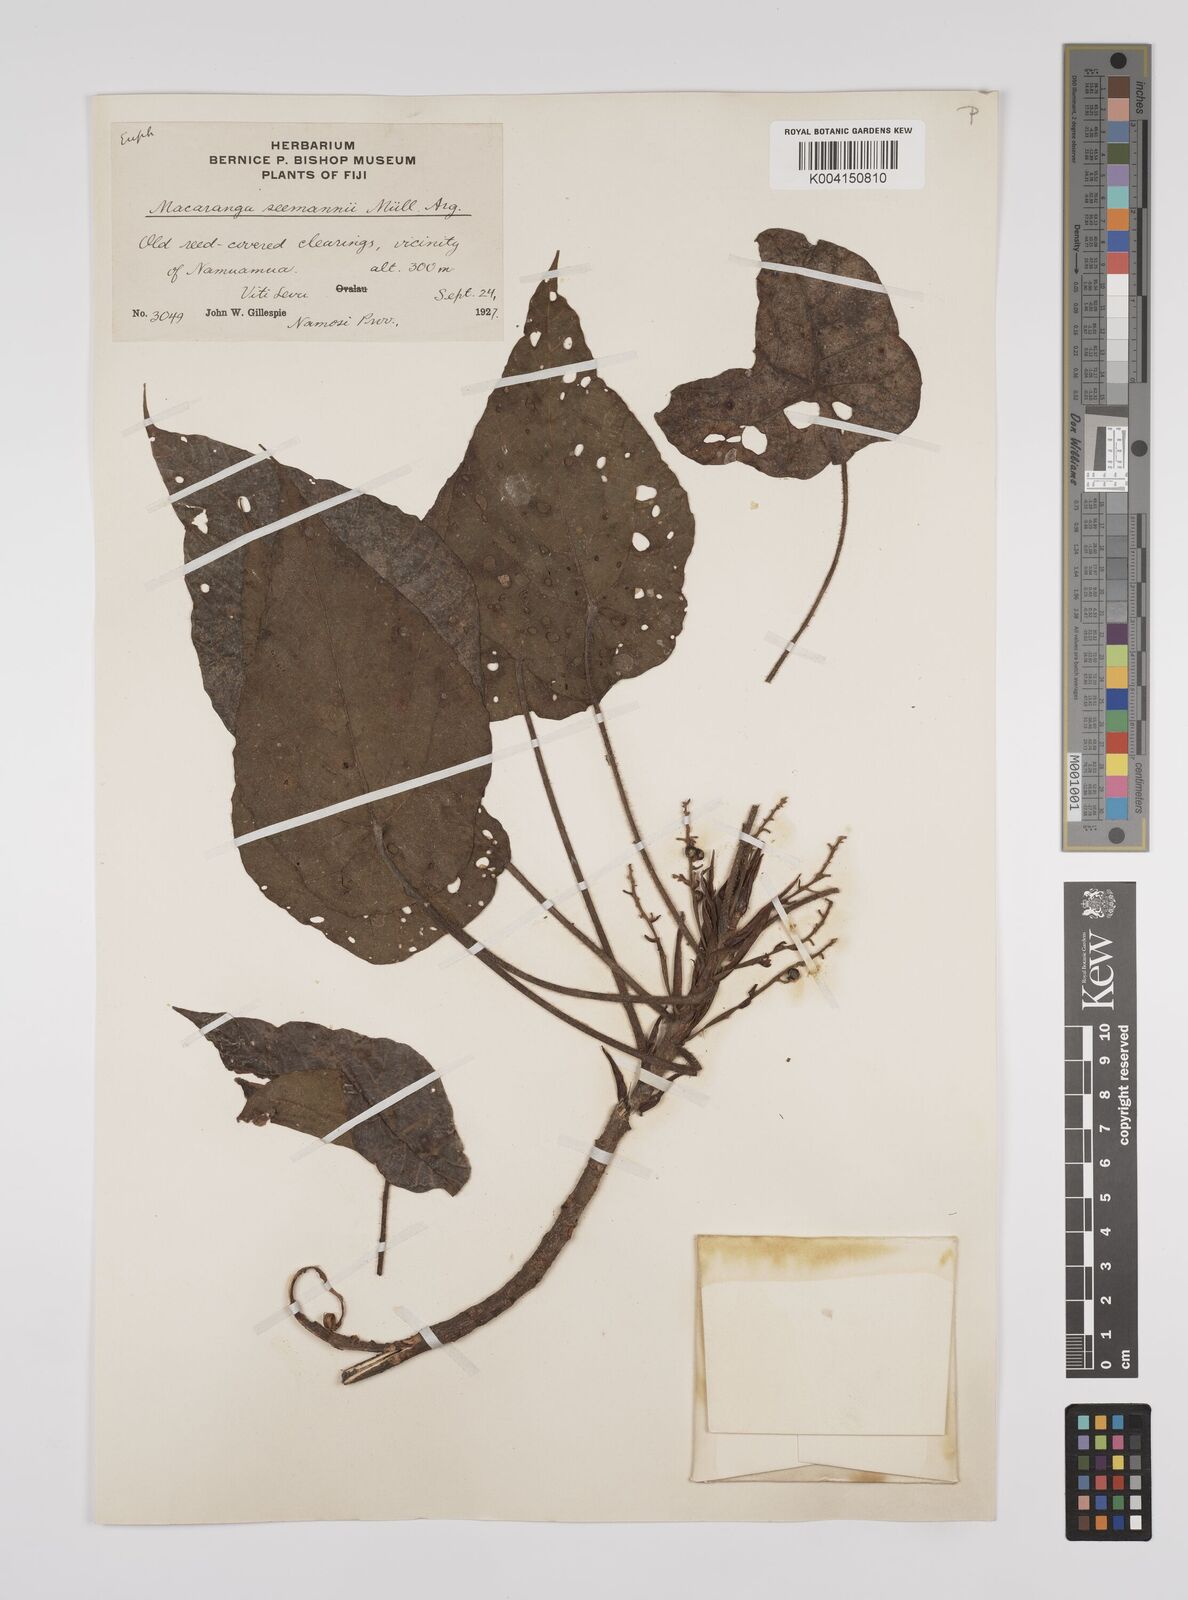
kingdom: Plantae
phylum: Tracheophyta
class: Magnoliopsida
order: Malpighiales
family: Euphorbiaceae
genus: Macaranga
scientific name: Macaranga seemannii
